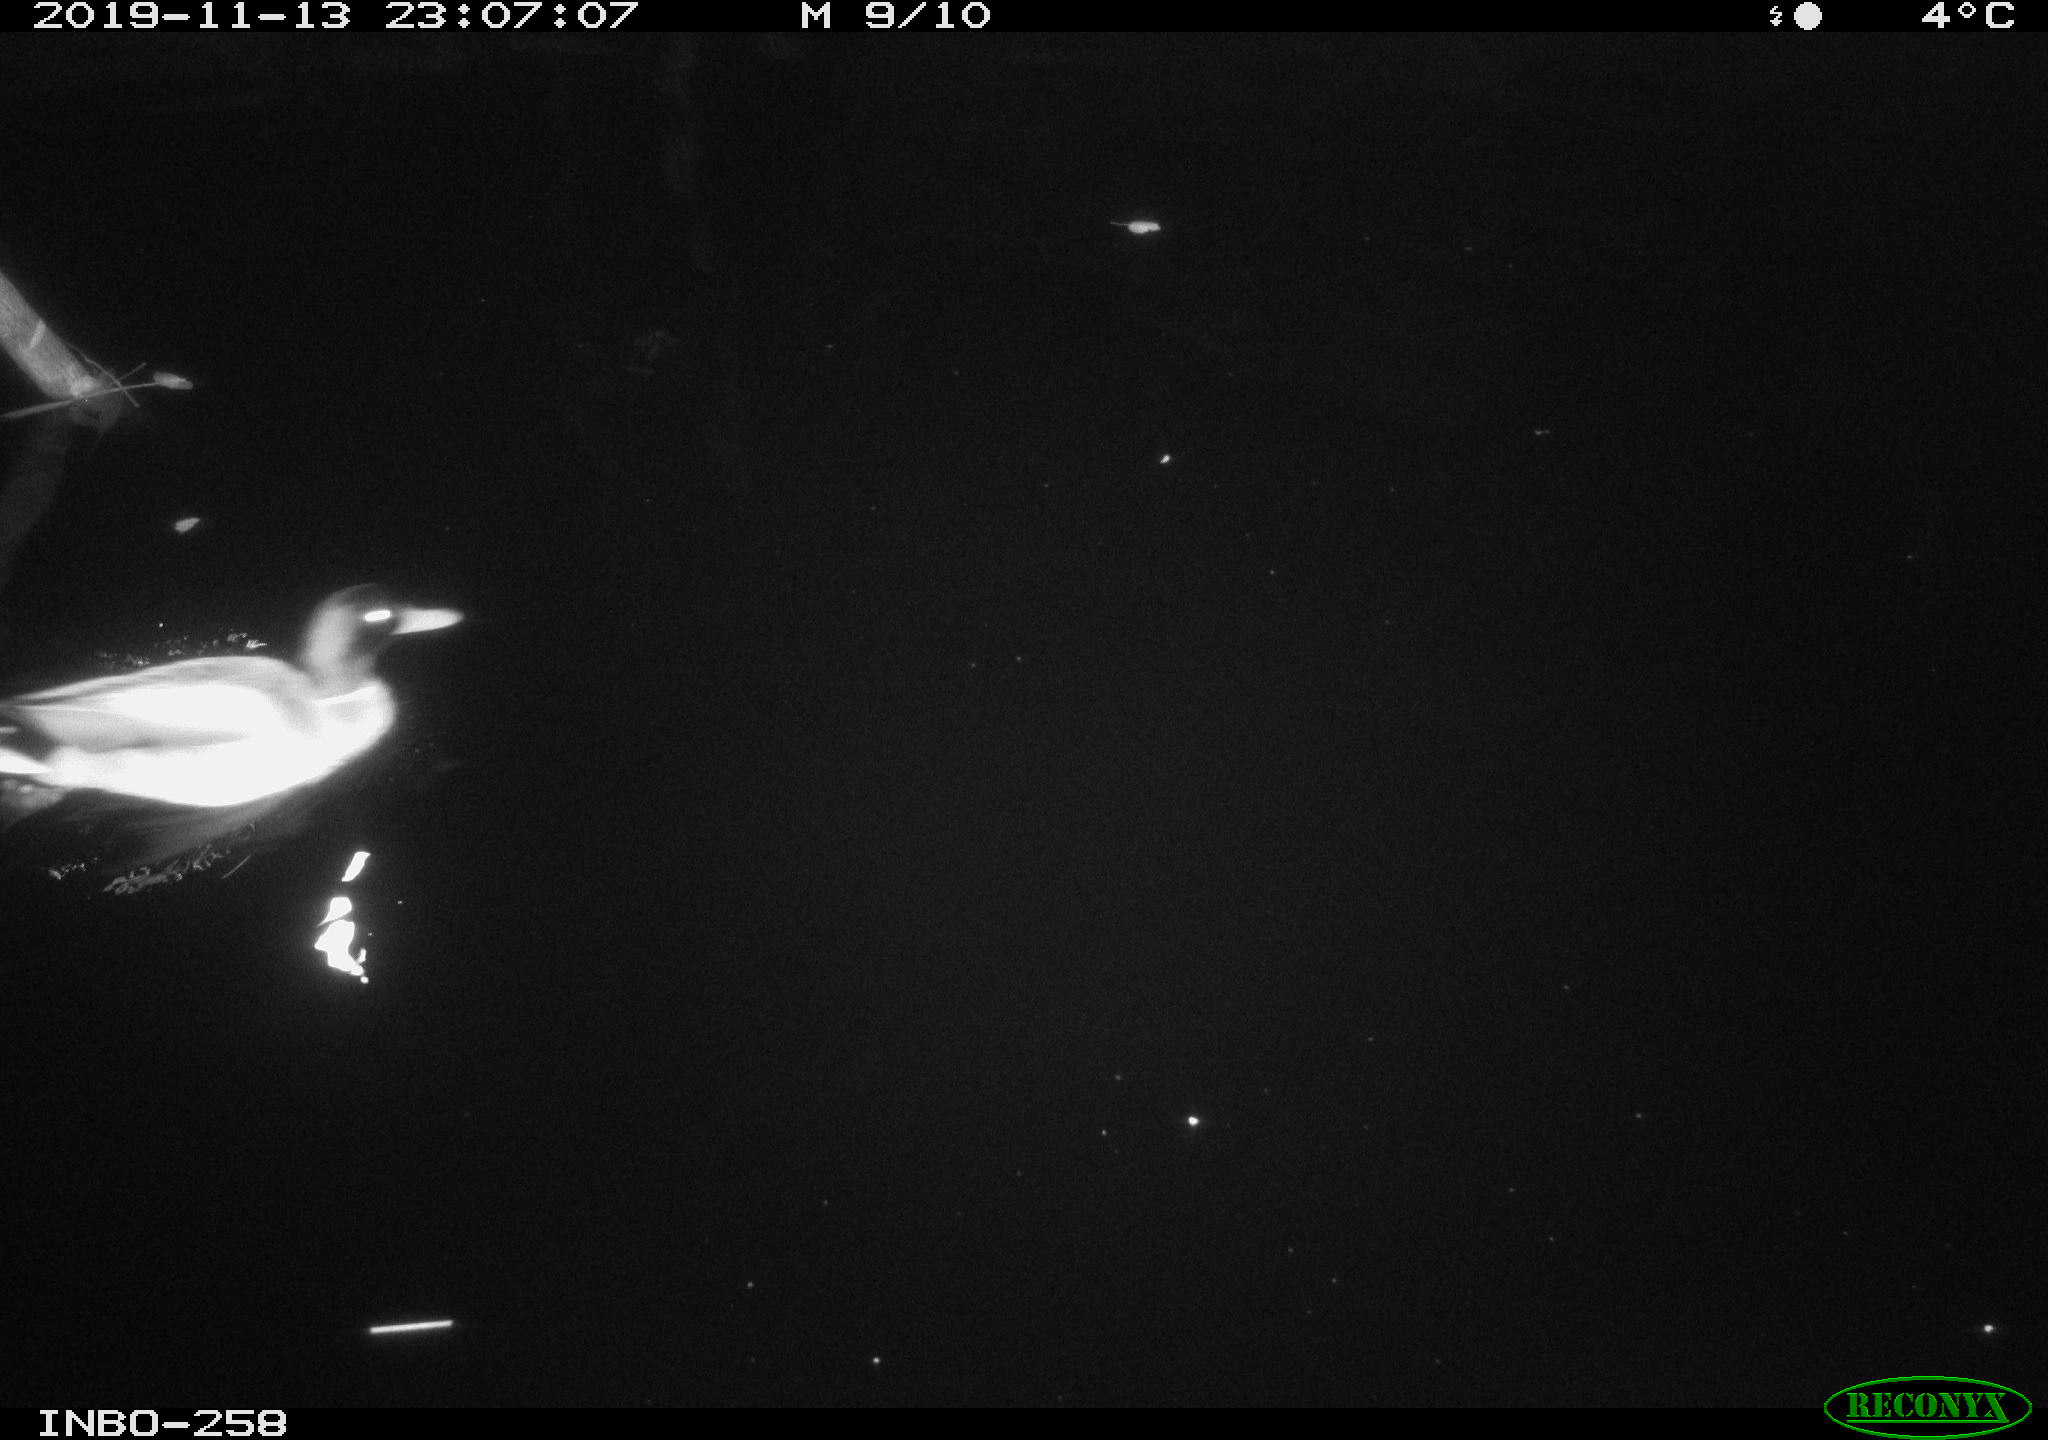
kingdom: Animalia
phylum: Chordata
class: Aves
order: Anseriformes
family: Anatidae
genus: Anas
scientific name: Anas platyrhynchos
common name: Mallard
